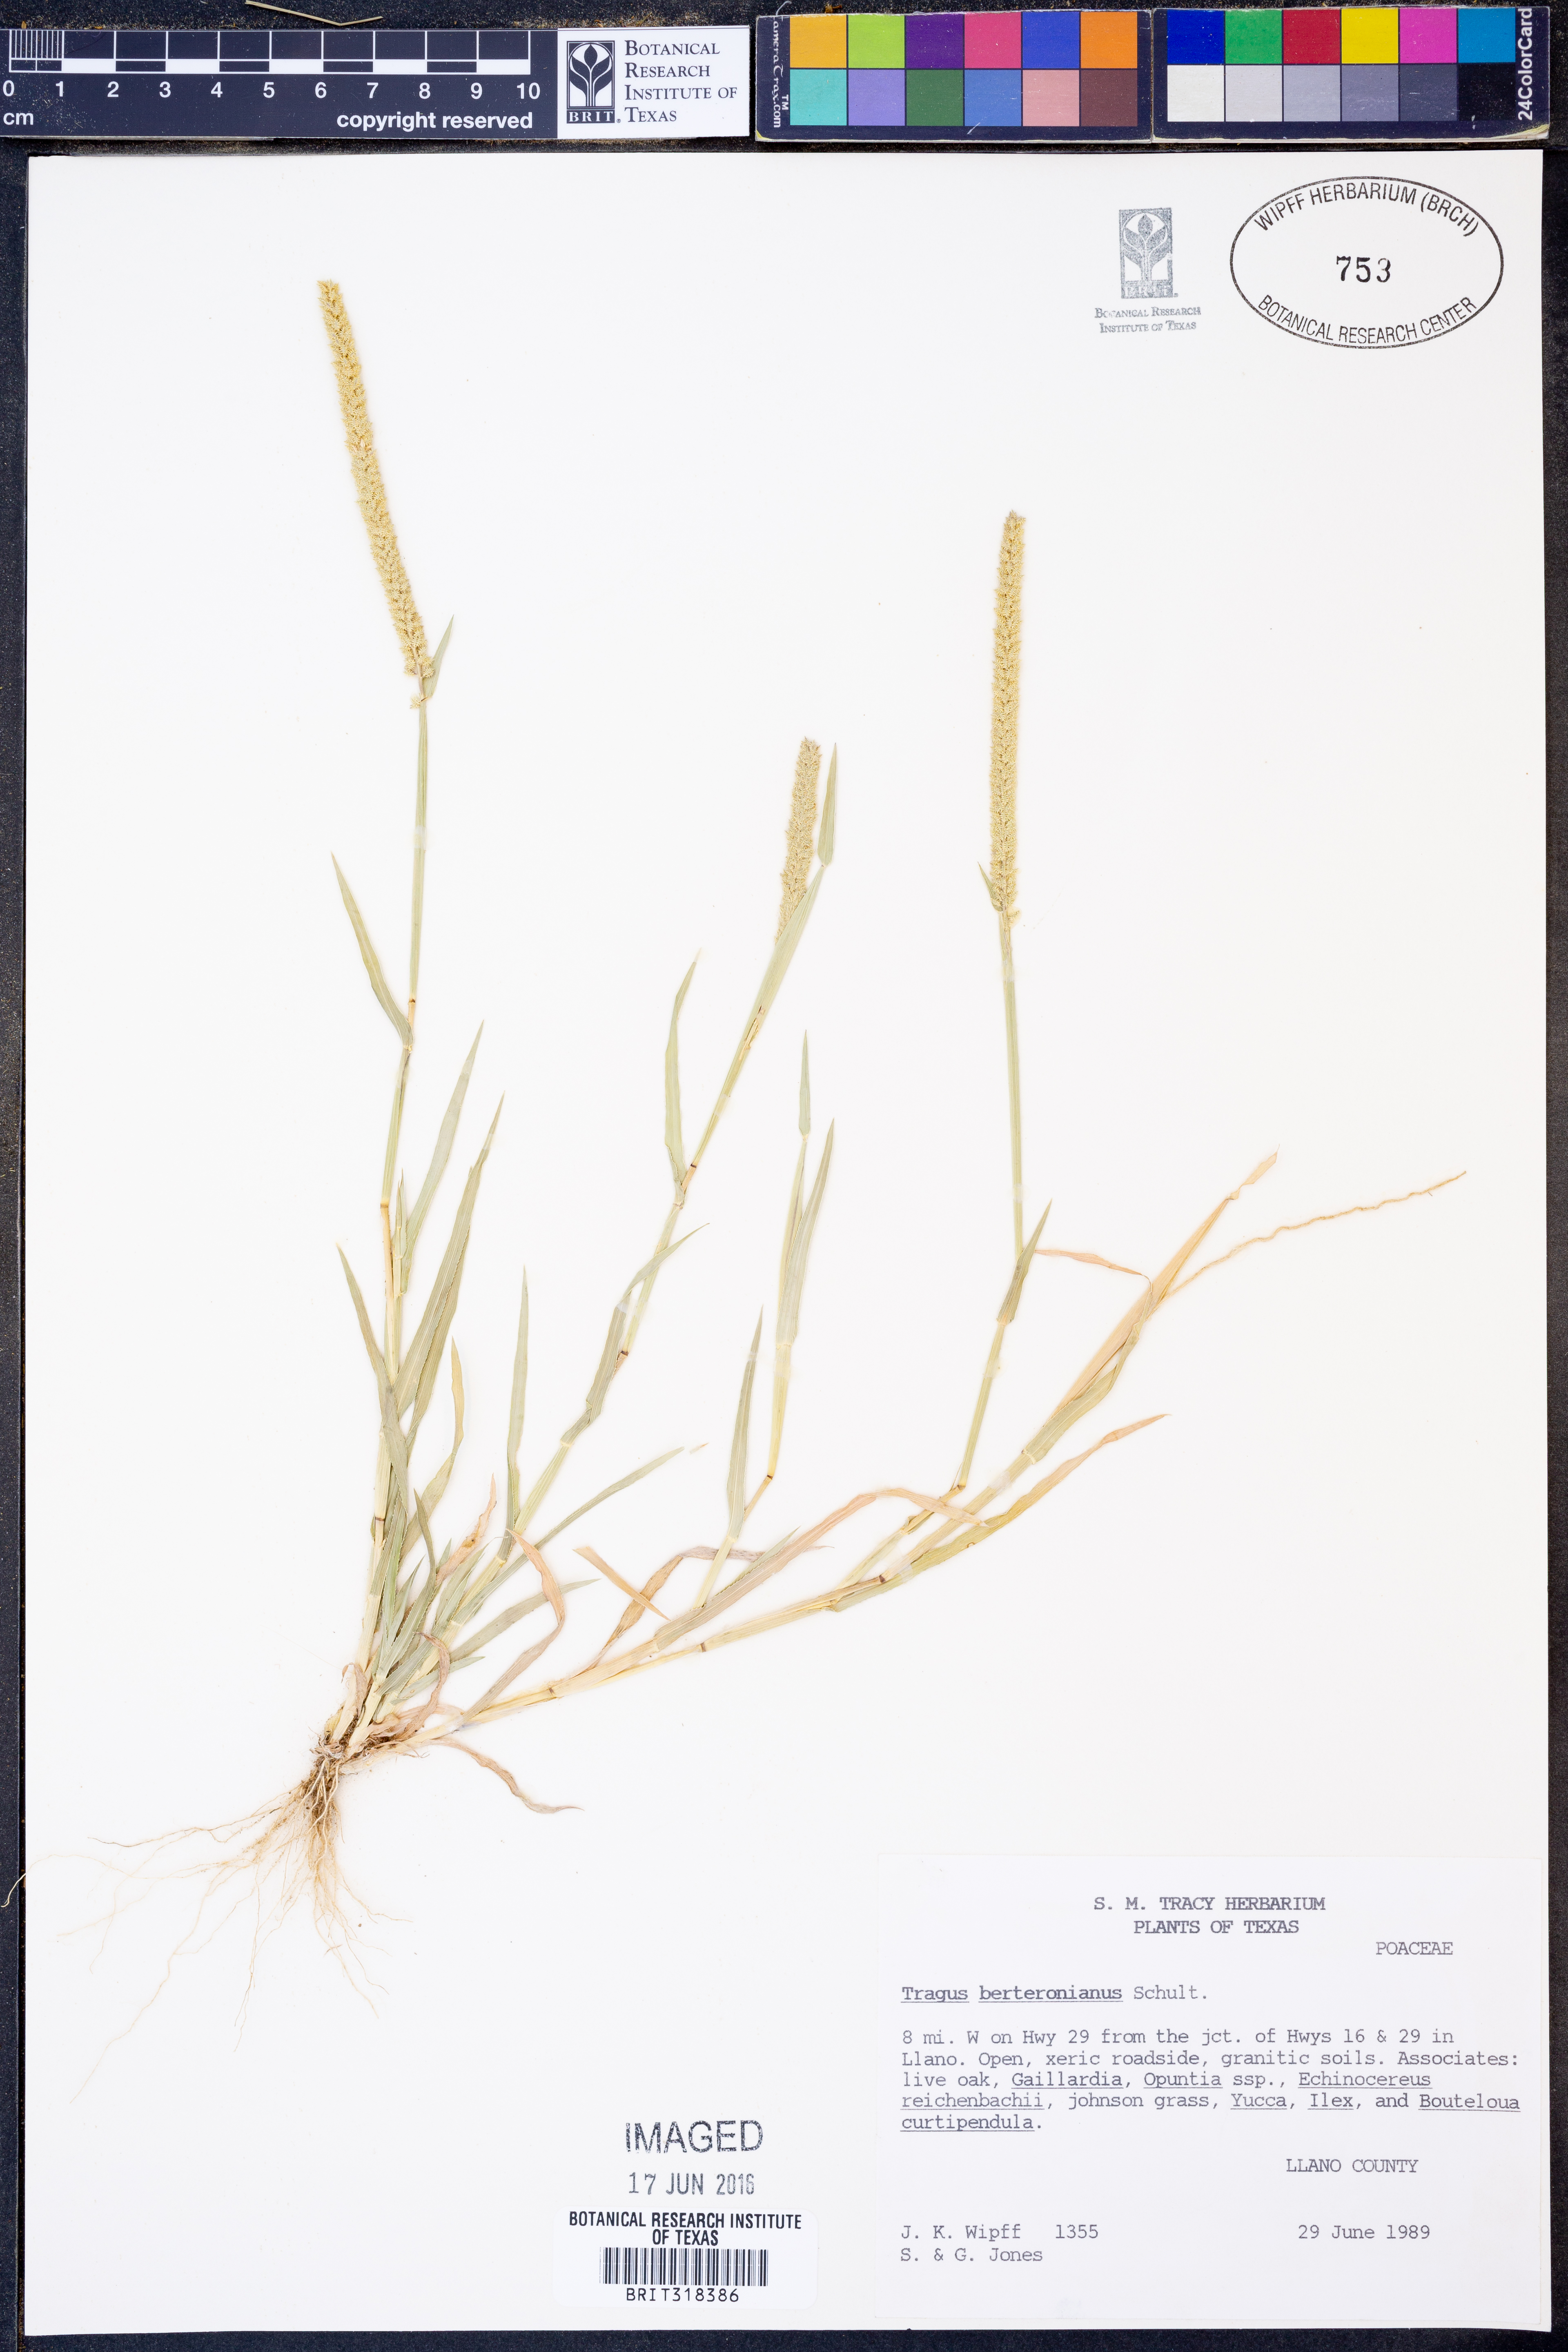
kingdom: Plantae
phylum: Tracheophyta
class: Liliopsida
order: Poales
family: Poaceae
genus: Tragus
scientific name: Tragus berteronianus
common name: African bur-grass
